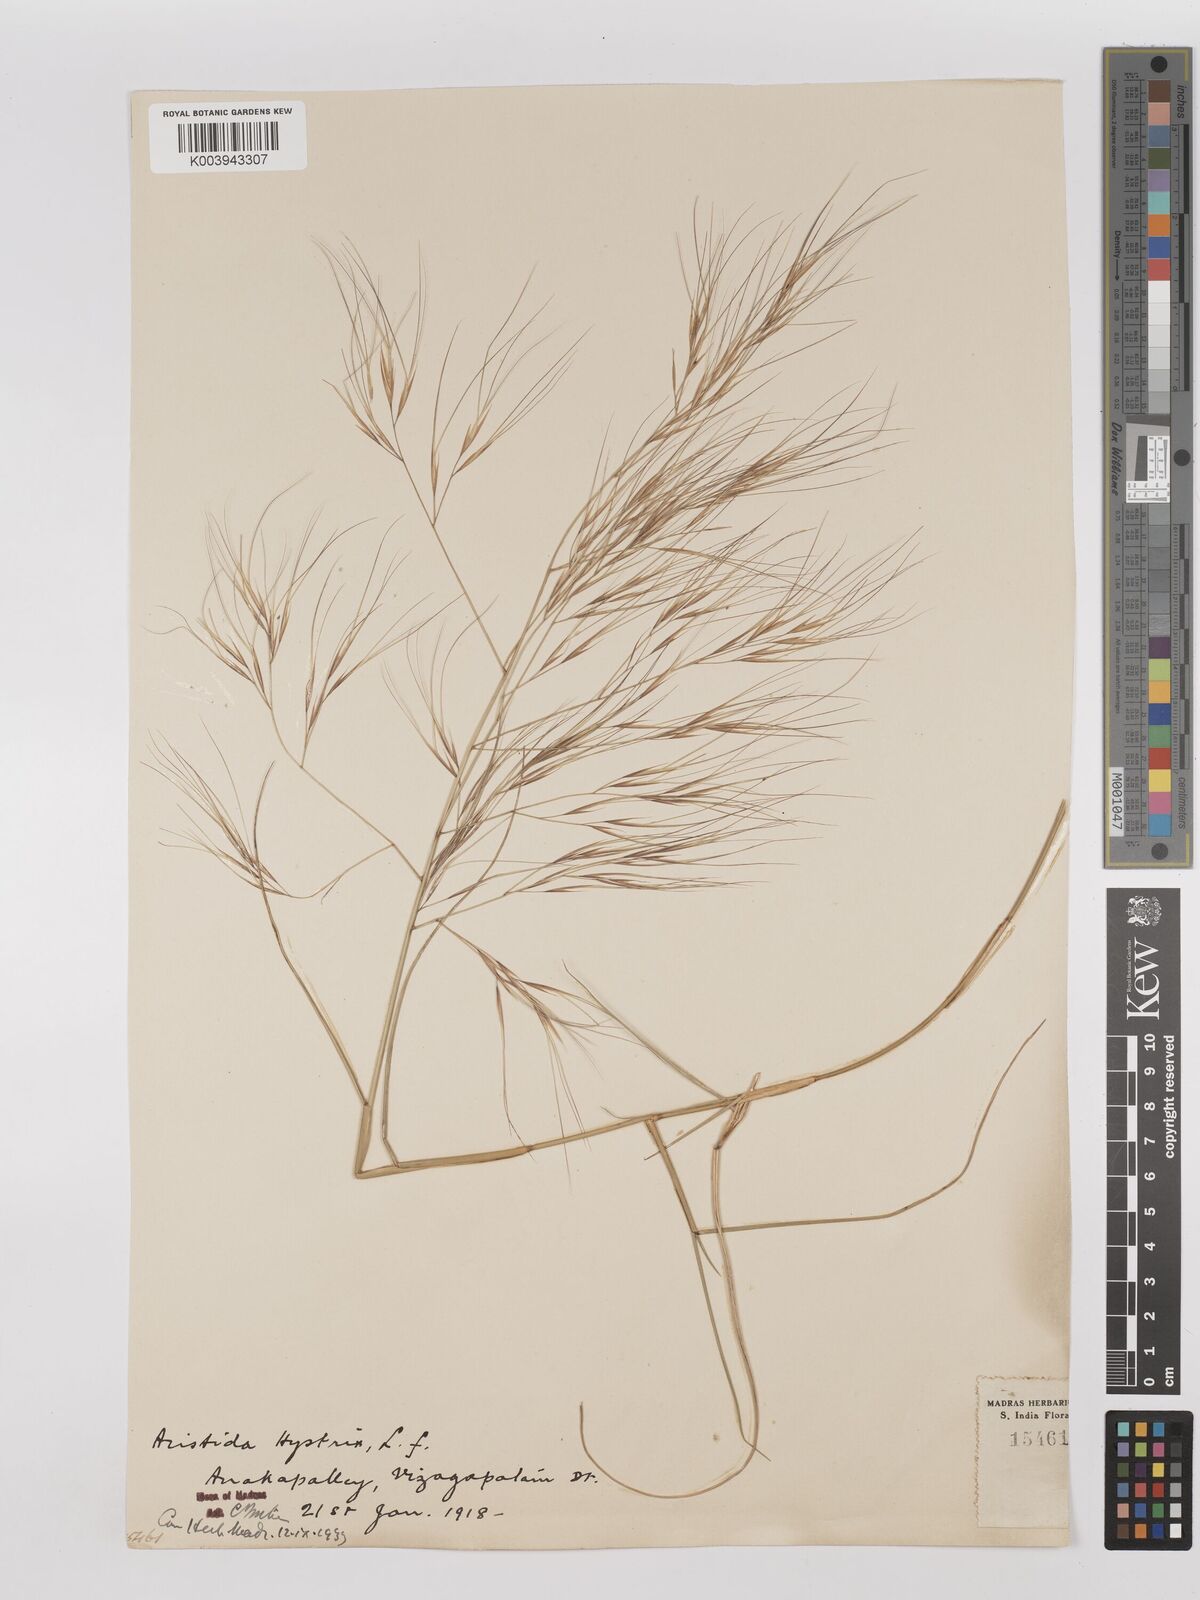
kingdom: Plantae
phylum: Tracheophyta
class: Liliopsida
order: Poales
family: Poaceae
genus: Aristida
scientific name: Aristida hystrix
